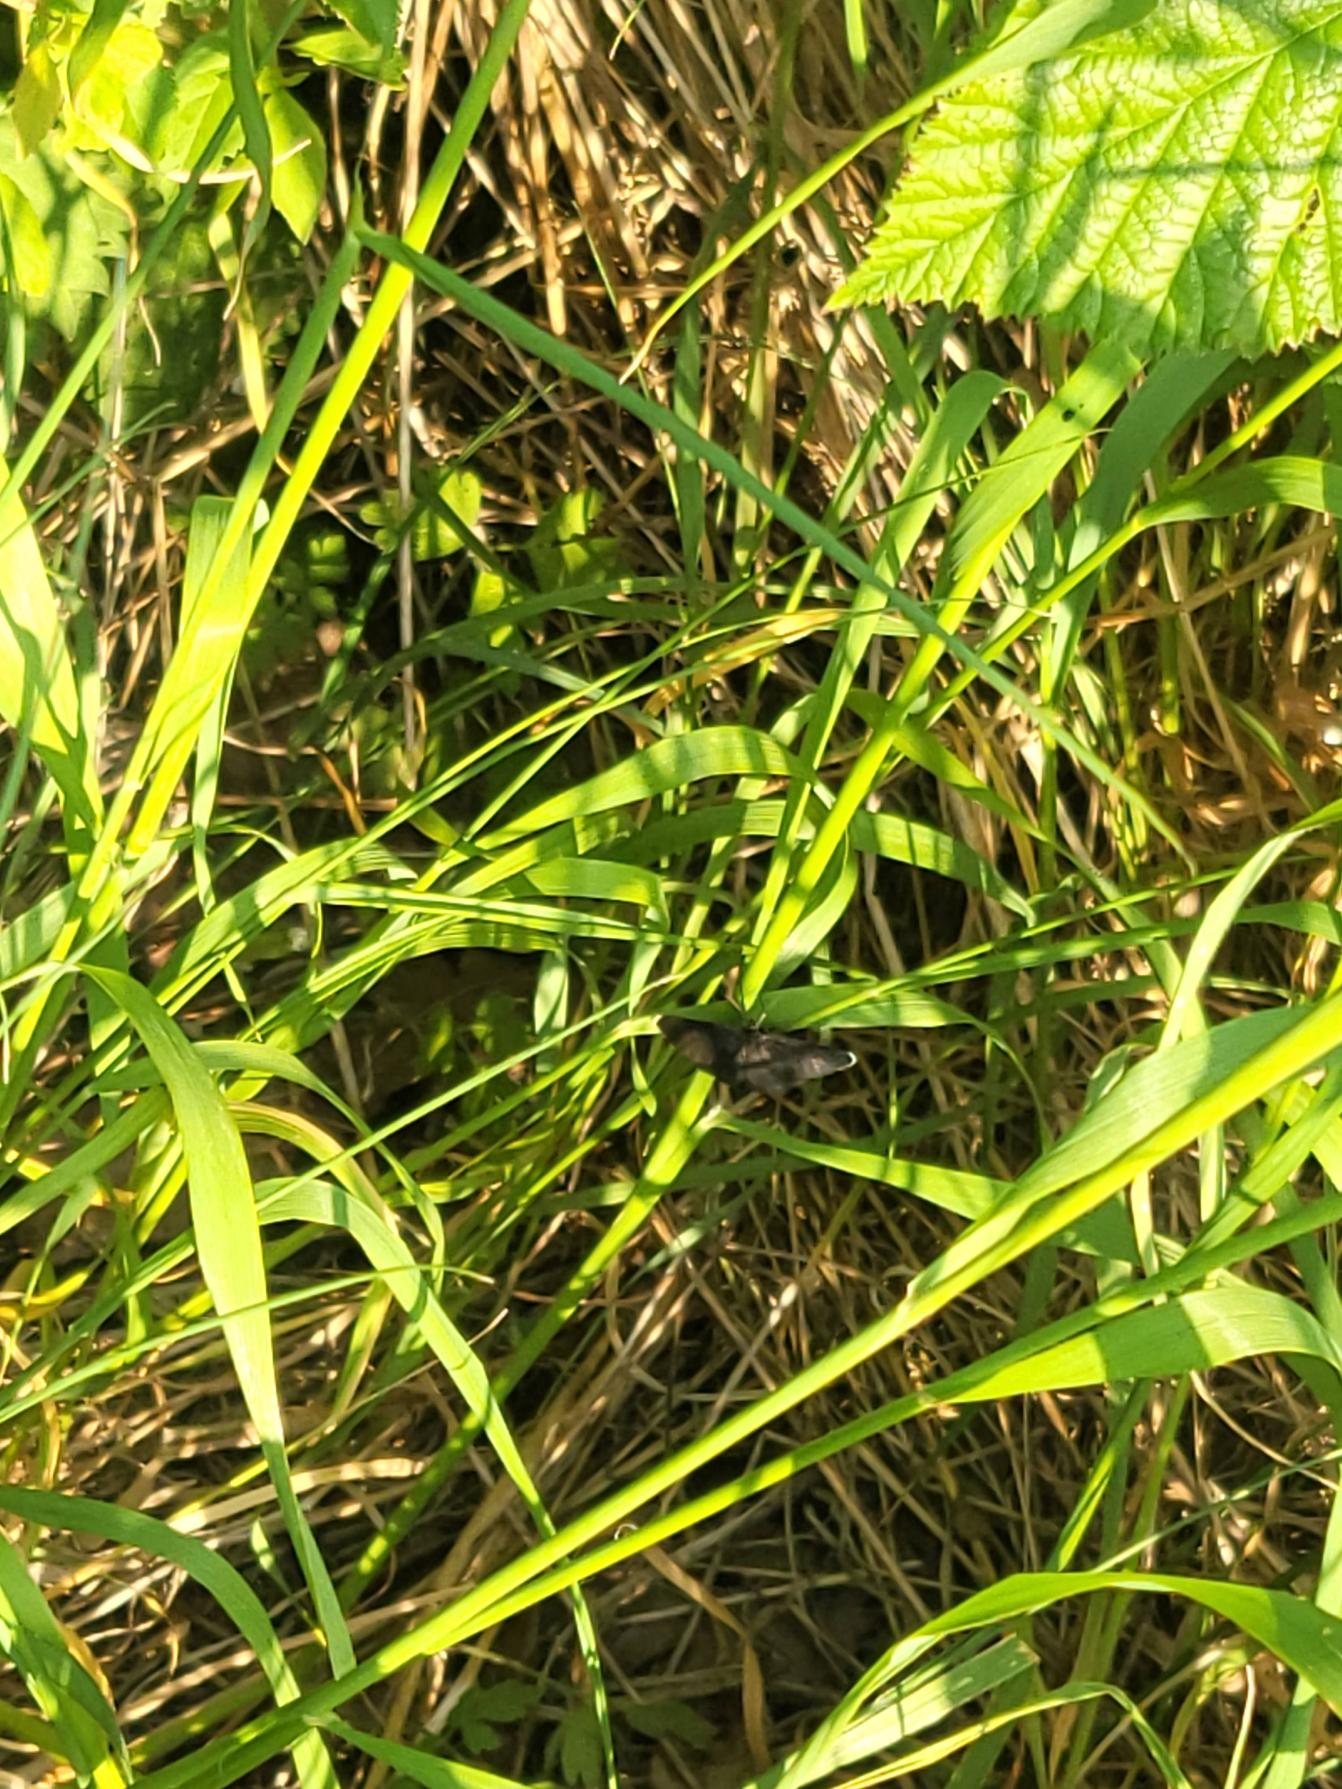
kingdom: Animalia
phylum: Arthropoda
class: Insecta
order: Lepidoptera
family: Geometridae
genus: Odezia
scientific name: Odezia atrata
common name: Sort måler
